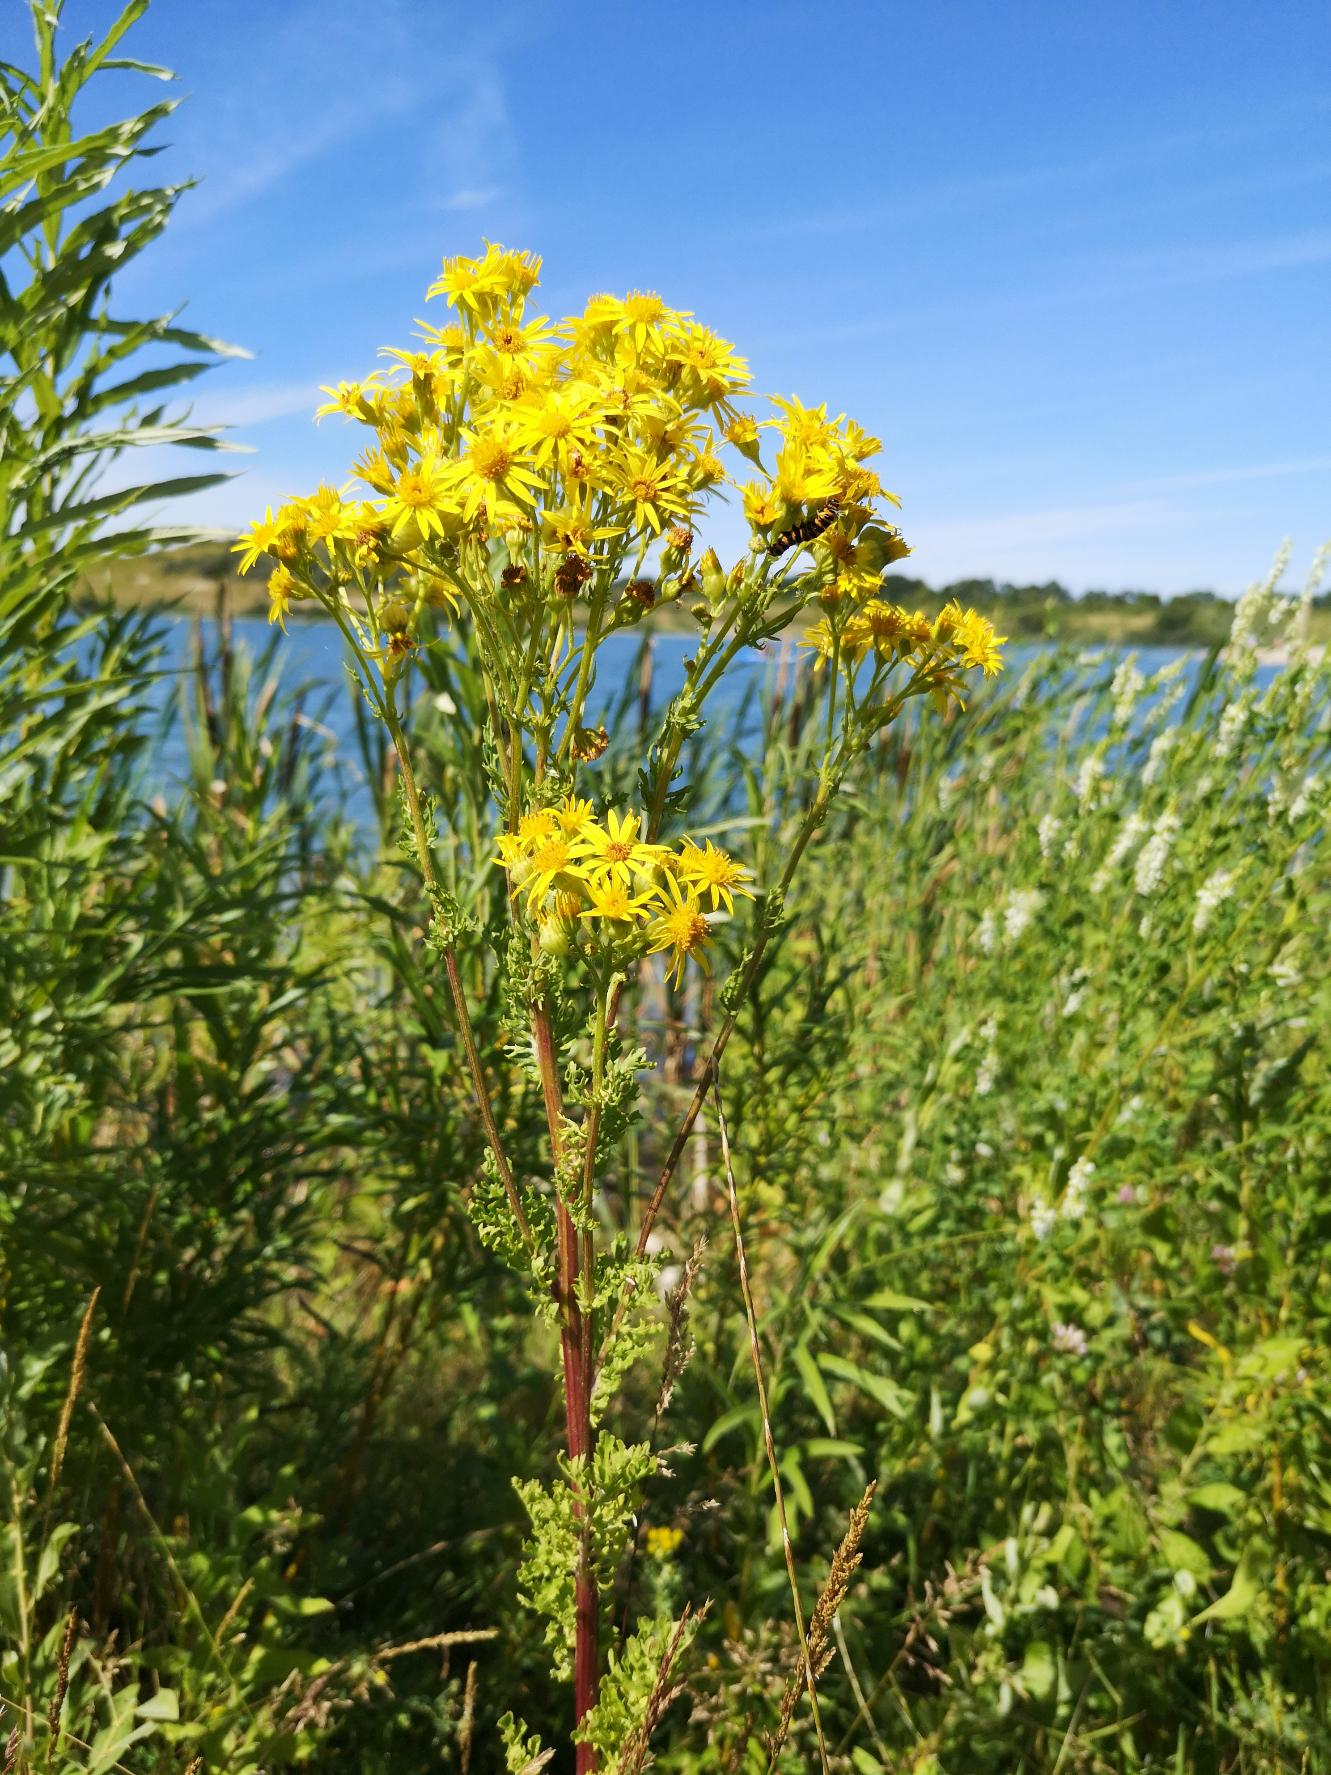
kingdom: Plantae
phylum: Tracheophyta
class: Magnoliopsida
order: Asterales
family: Asteraceae
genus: Jacobaea
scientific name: Jacobaea vulgaris
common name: Eng-brandbæger
